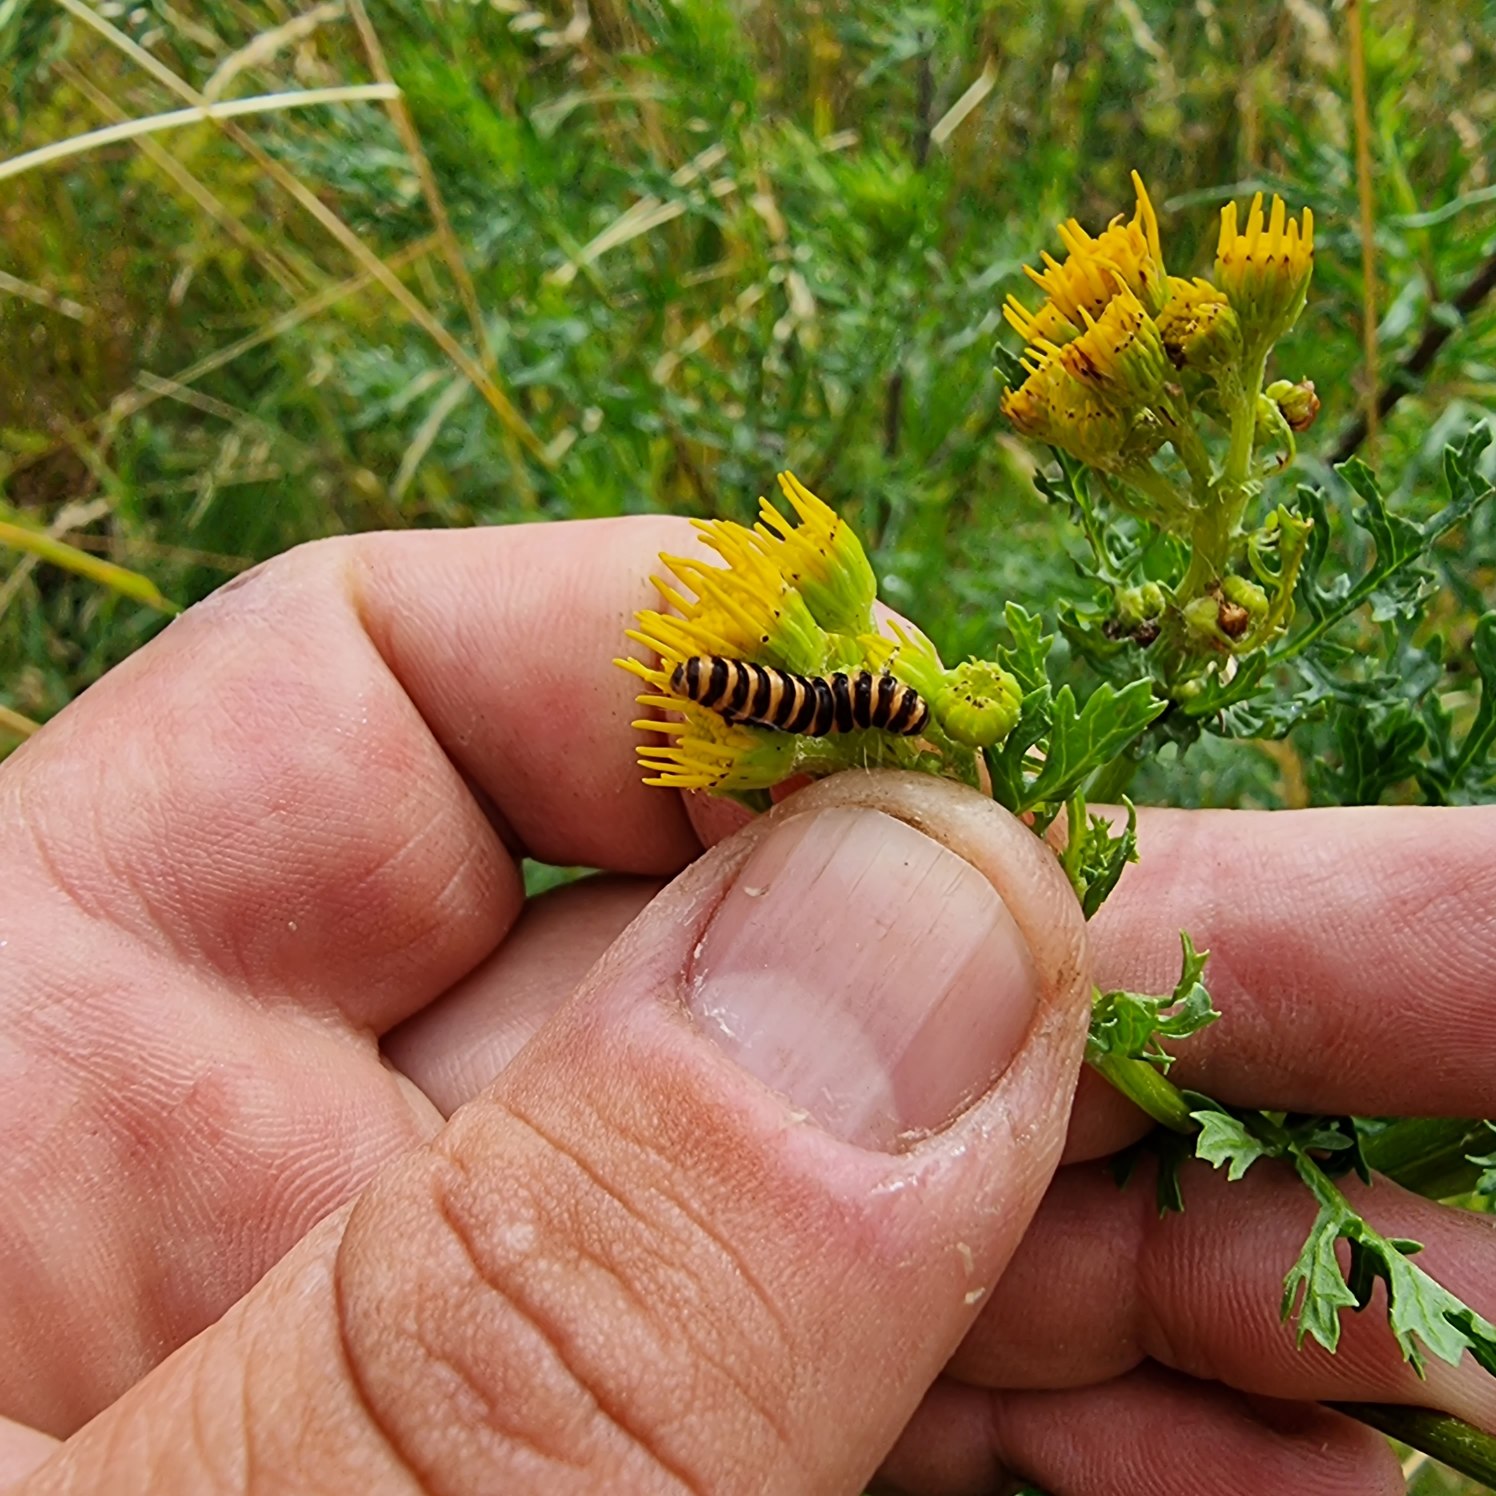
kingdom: Animalia
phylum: Arthropoda
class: Insecta
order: Lepidoptera
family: Erebidae
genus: Tyria
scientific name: Tyria jacobaeae
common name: Blodplet
